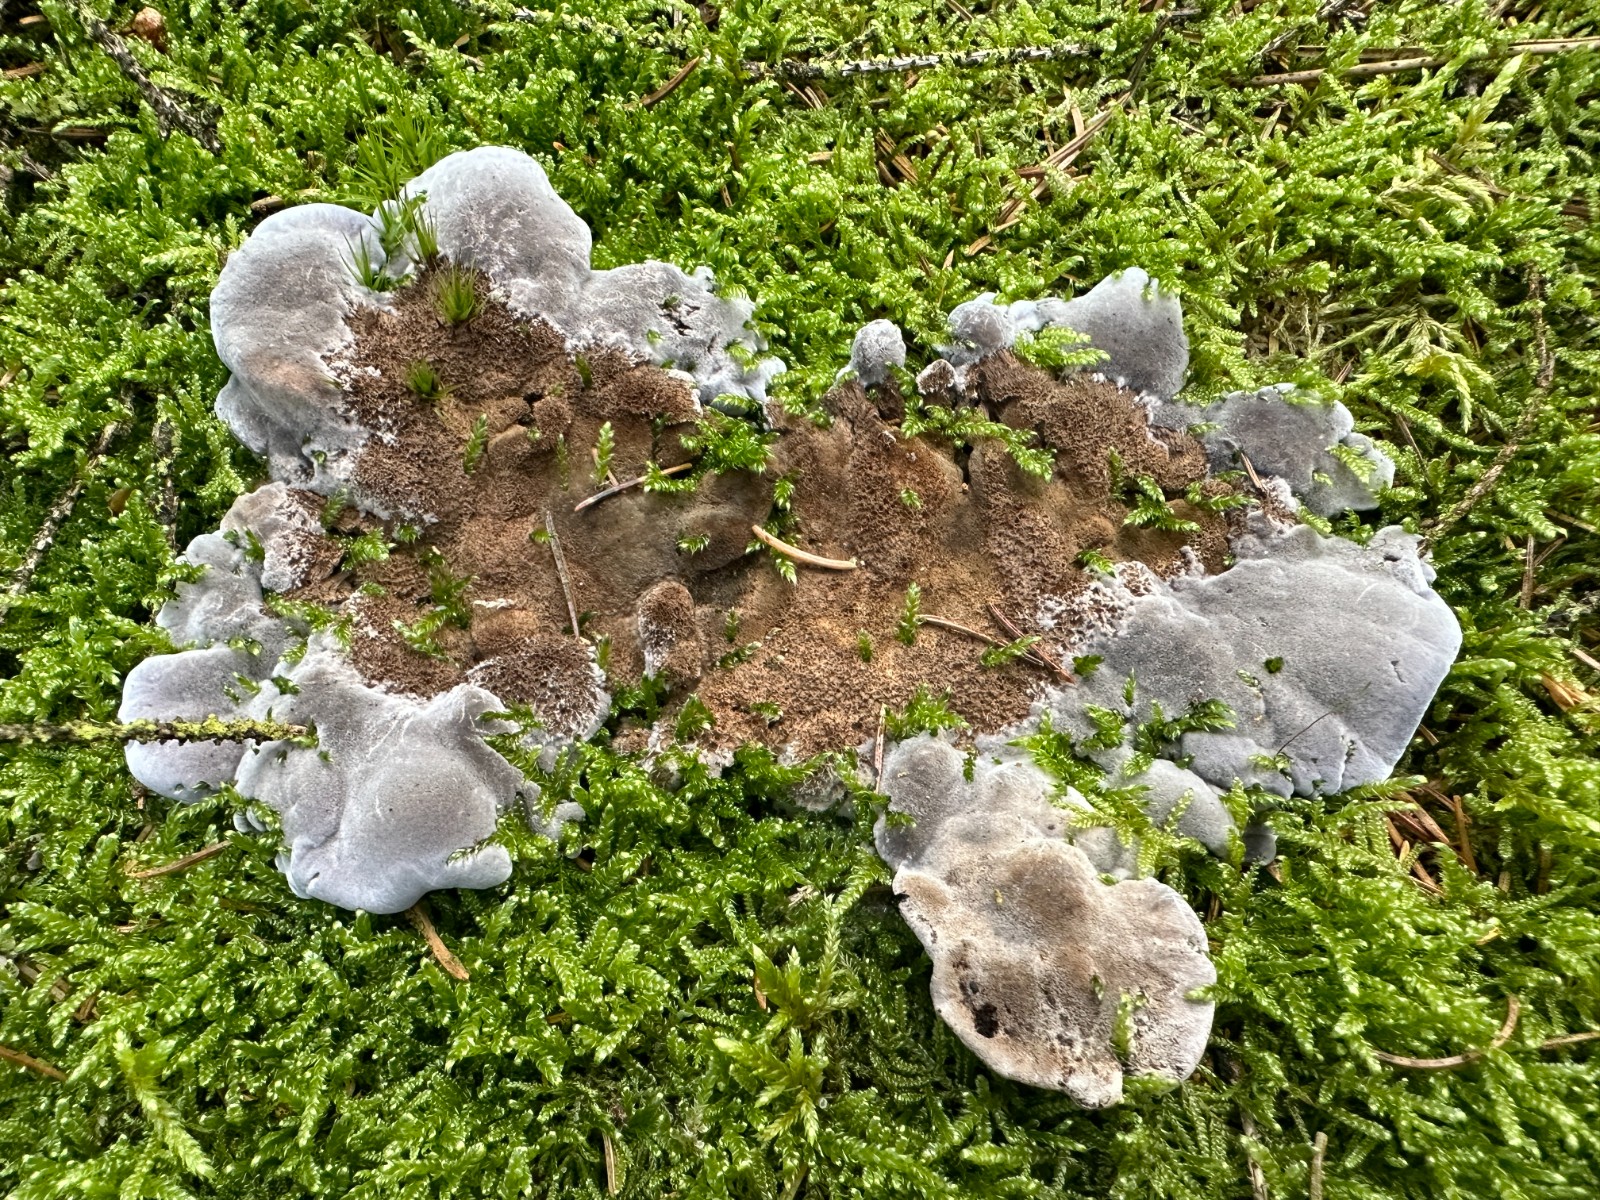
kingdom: Fungi
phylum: Basidiomycota
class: Agaricomycetes
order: Thelephorales
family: Thelephoraceae
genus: Phellodon
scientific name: Phellodon
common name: mørk duftpigsvamp
